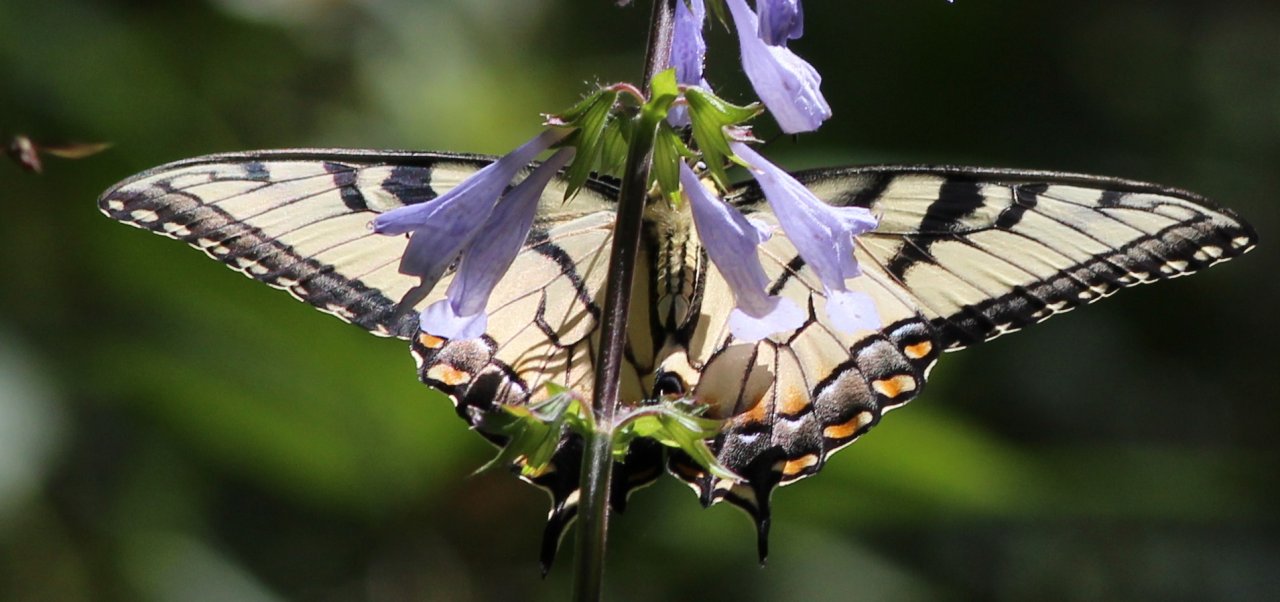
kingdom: Animalia
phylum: Arthropoda
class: Insecta
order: Lepidoptera
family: Papilionidae
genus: Pterourus
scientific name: Pterourus glaucus
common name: Eastern Tiger Swallowtail
